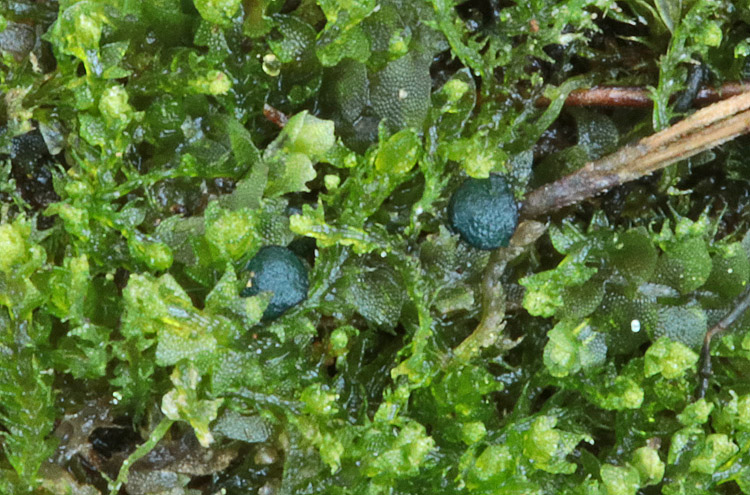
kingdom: Fungi
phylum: Ascomycota
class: Leotiomycetes
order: Leotiales
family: Mniaeciaceae
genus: Mniaecia
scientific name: Mniaecia jungermanniae
